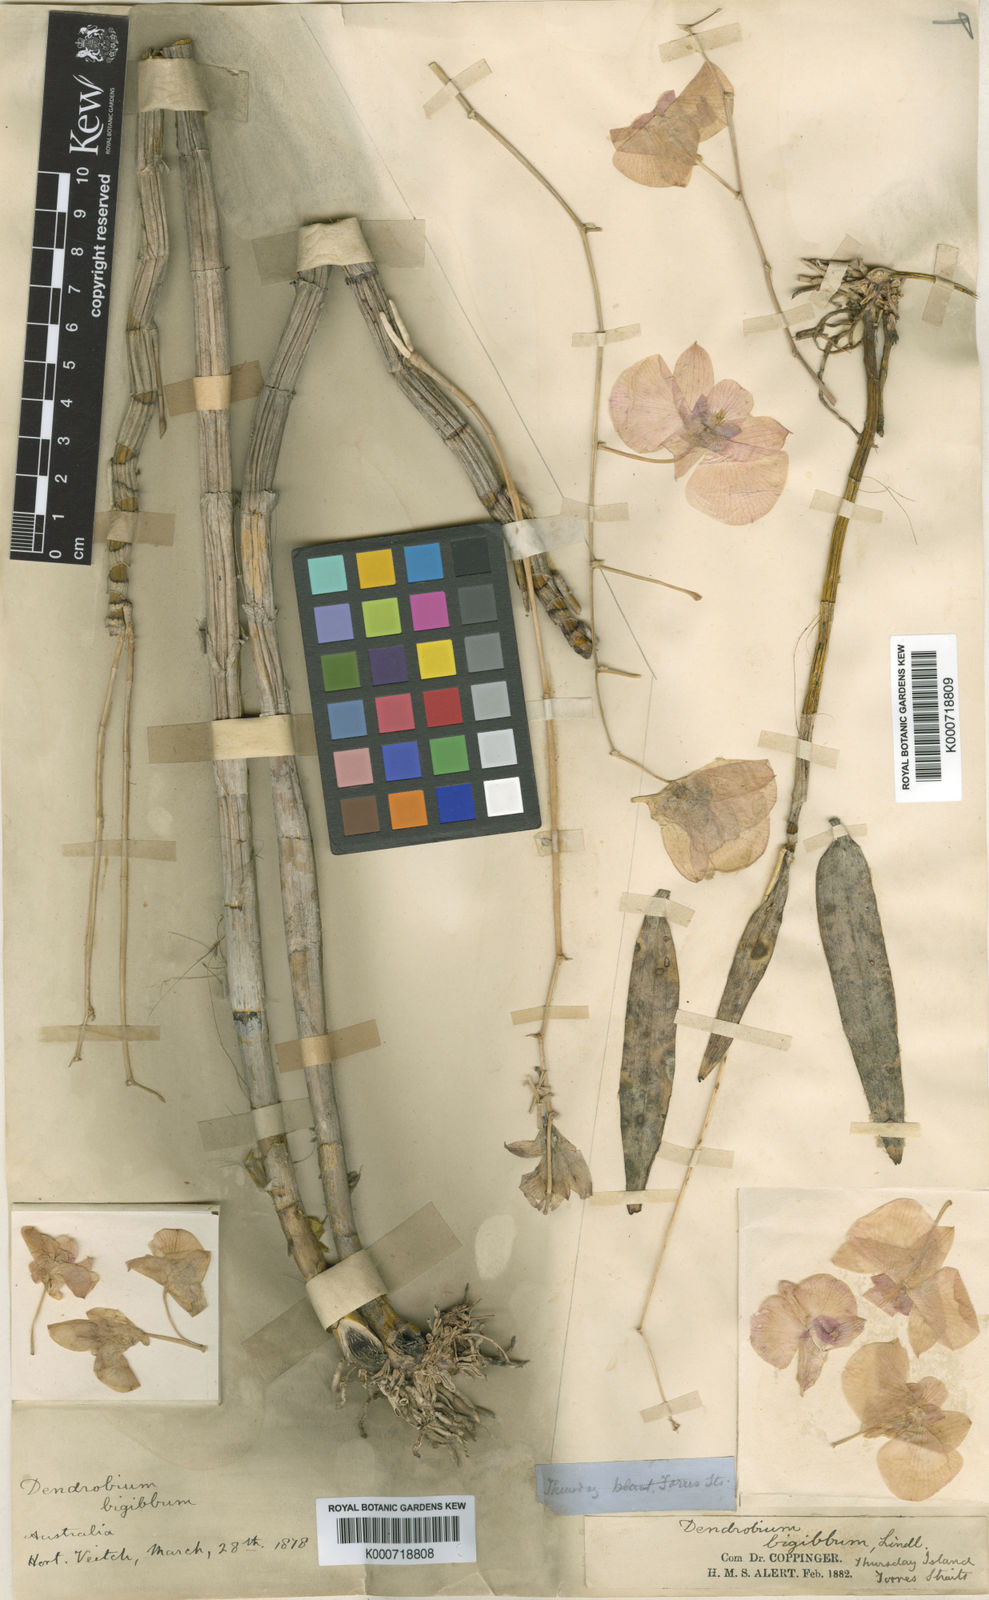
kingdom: Plantae
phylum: Tracheophyta
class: Liliopsida
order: Asparagales
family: Orchidaceae
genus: Dendrobium
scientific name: Dendrobium bigibbum
